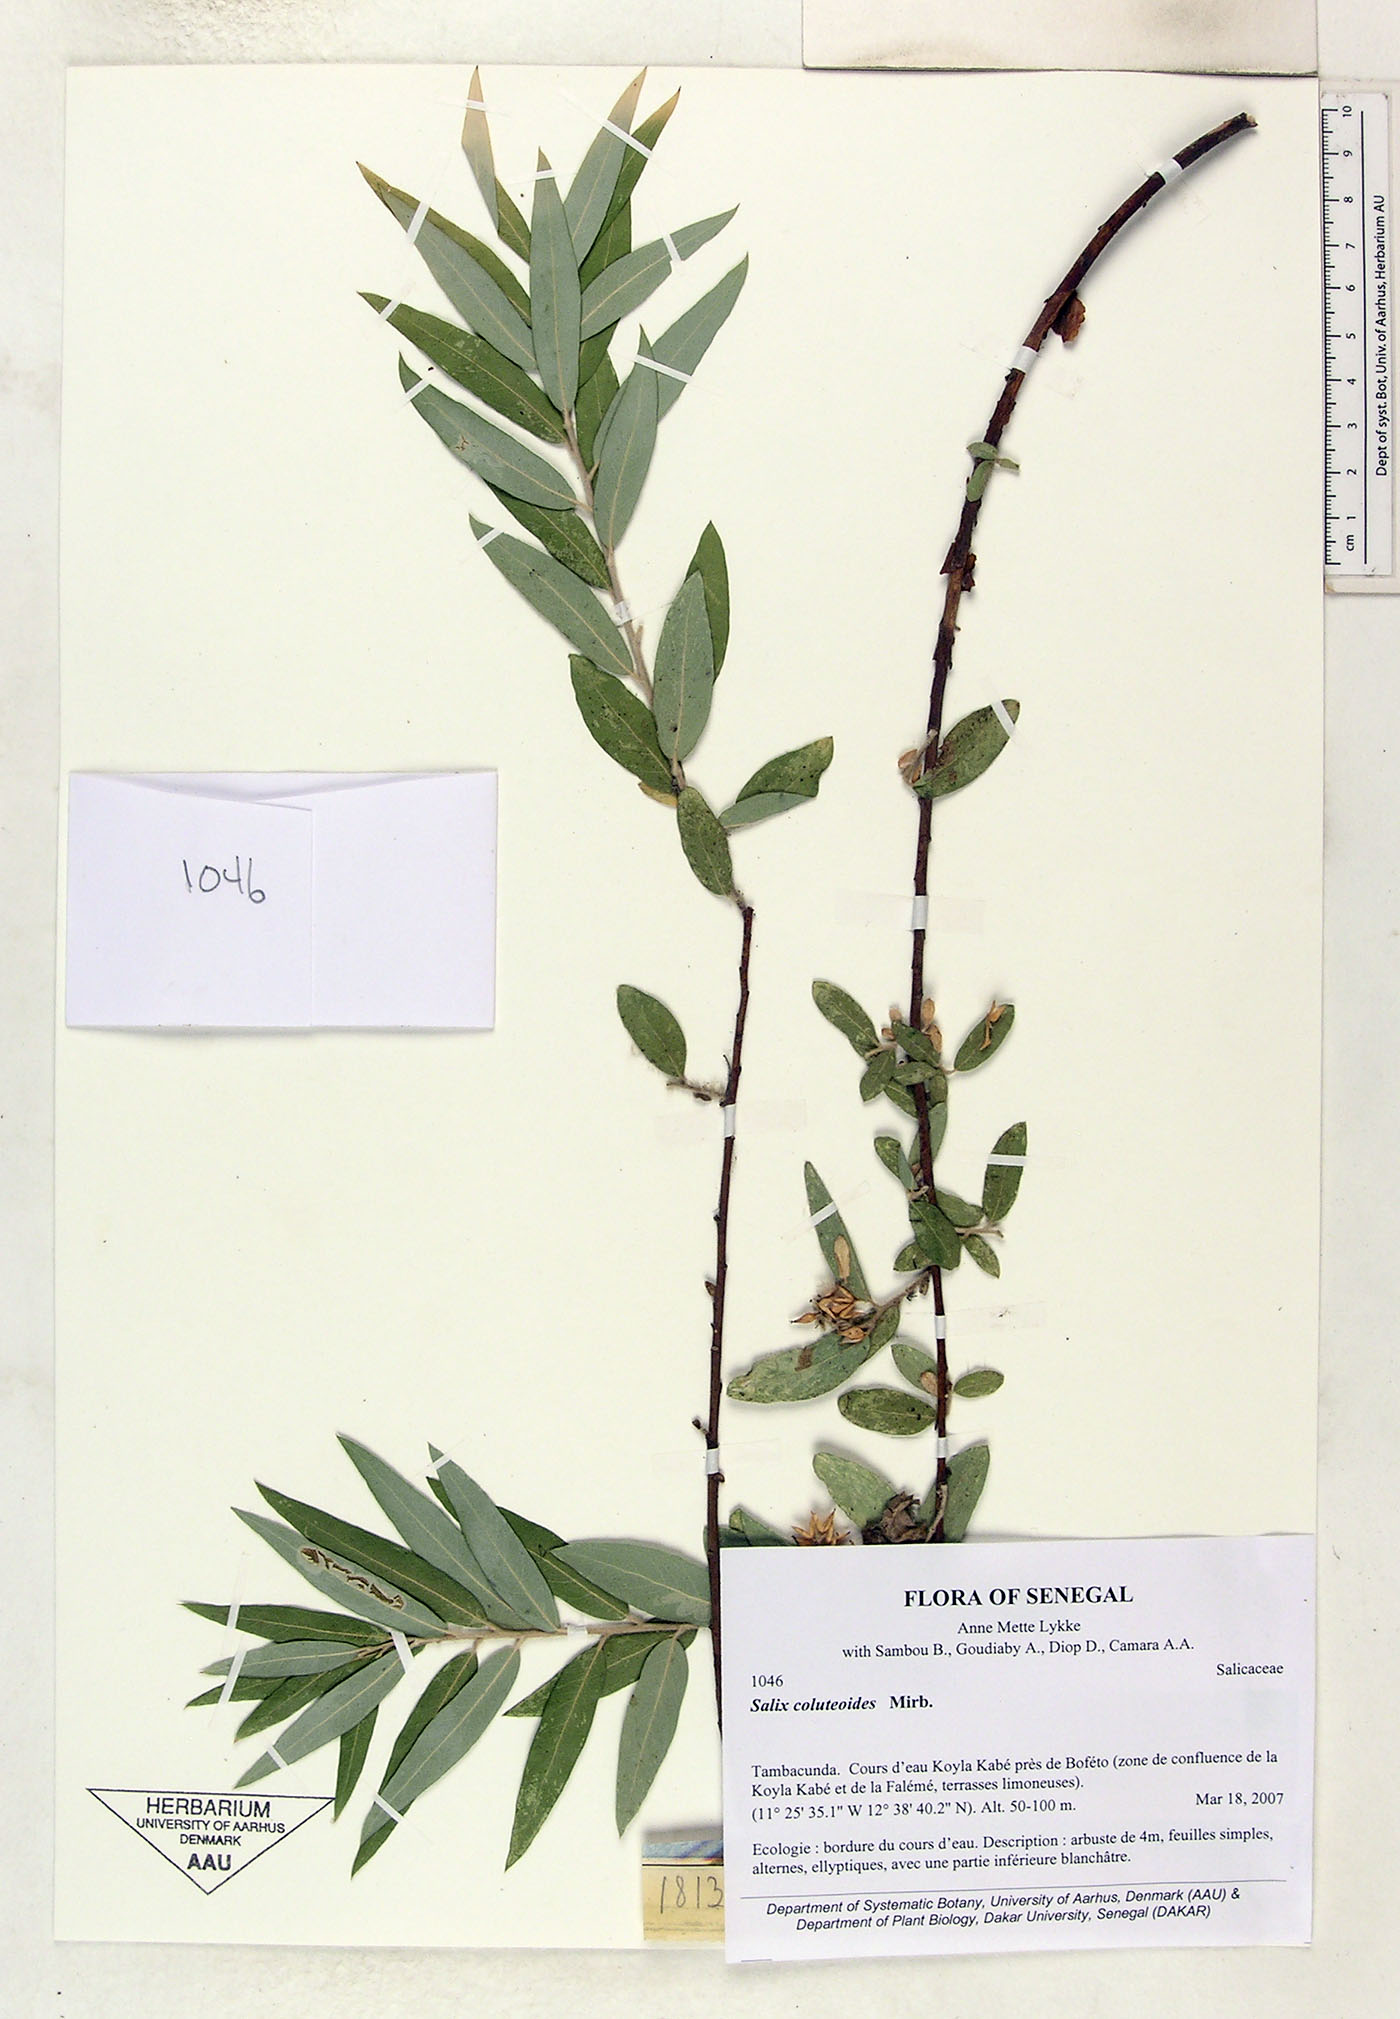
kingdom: Plantae
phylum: Tracheophyta
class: Magnoliopsida
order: Malpighiales
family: Salicaceae
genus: Salix
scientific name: Salix coluteoides
